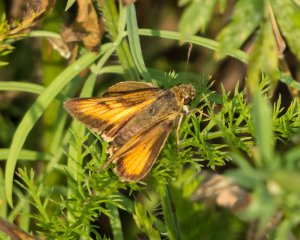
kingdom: Animalia
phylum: Arthropoda
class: Insecta
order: Lepidoptera
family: Hesperiidae
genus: Atrytone
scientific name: Atrytone delaware
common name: Delaware Skipper
